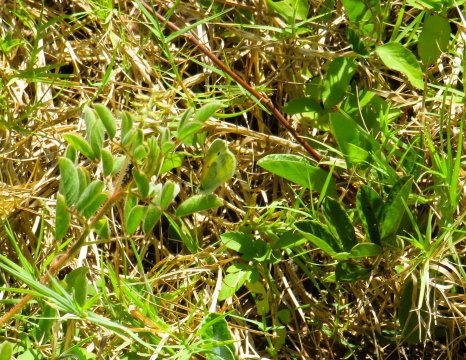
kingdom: Animalia
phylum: Arthropoda
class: Insecta
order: Lepidoptera
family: Pieridae
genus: Nathalis
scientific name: Nathalis iole
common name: Dainty Sulphur
